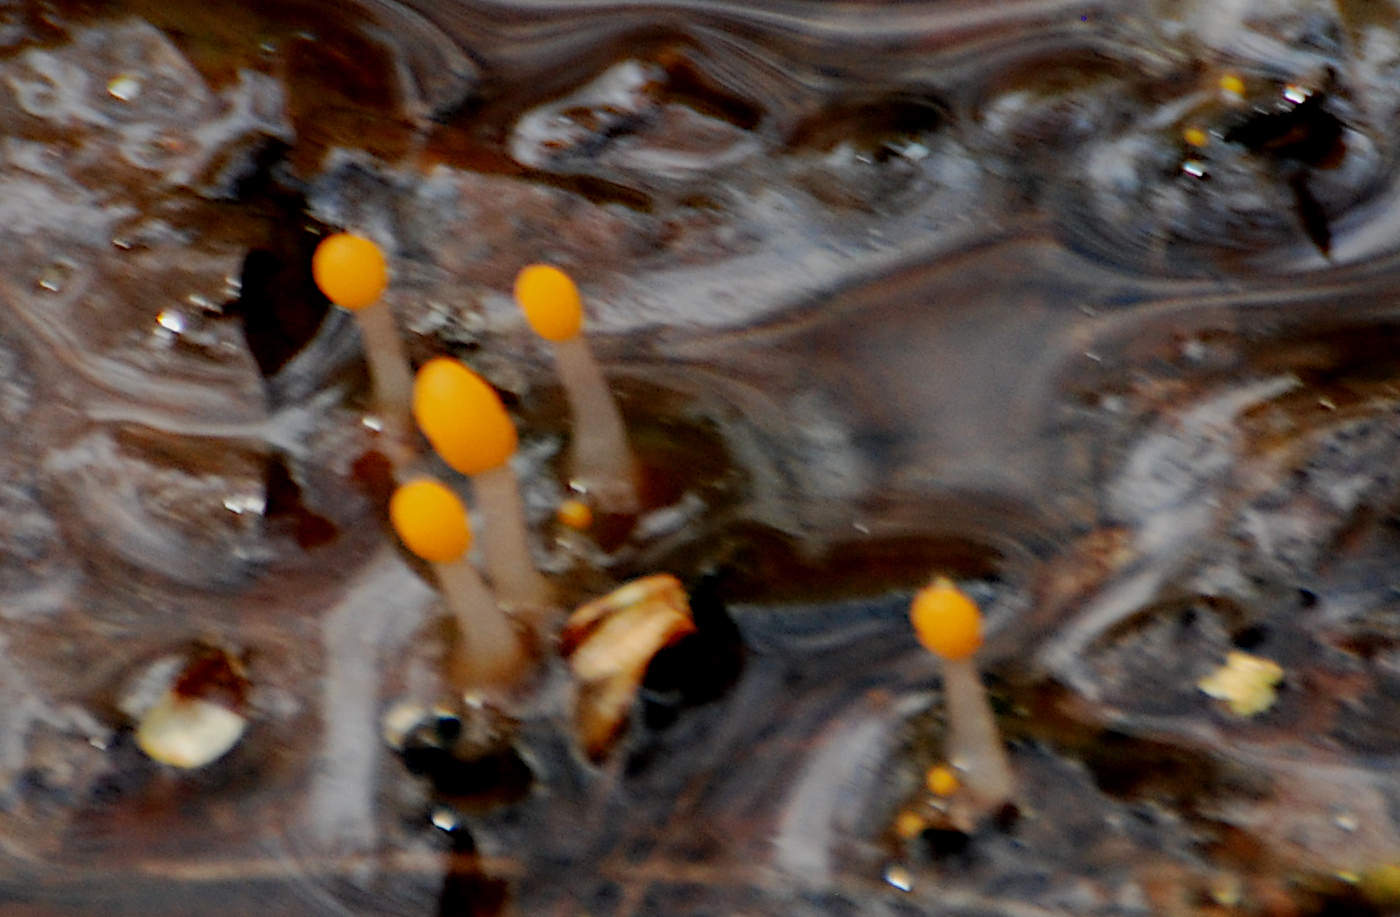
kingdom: Fungi
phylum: Ascomycota
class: Leotiomycetes
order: Helotiales
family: Cenangiaceae
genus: Mitrula
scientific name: Mitrula paludosa
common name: gul nøkketunge
